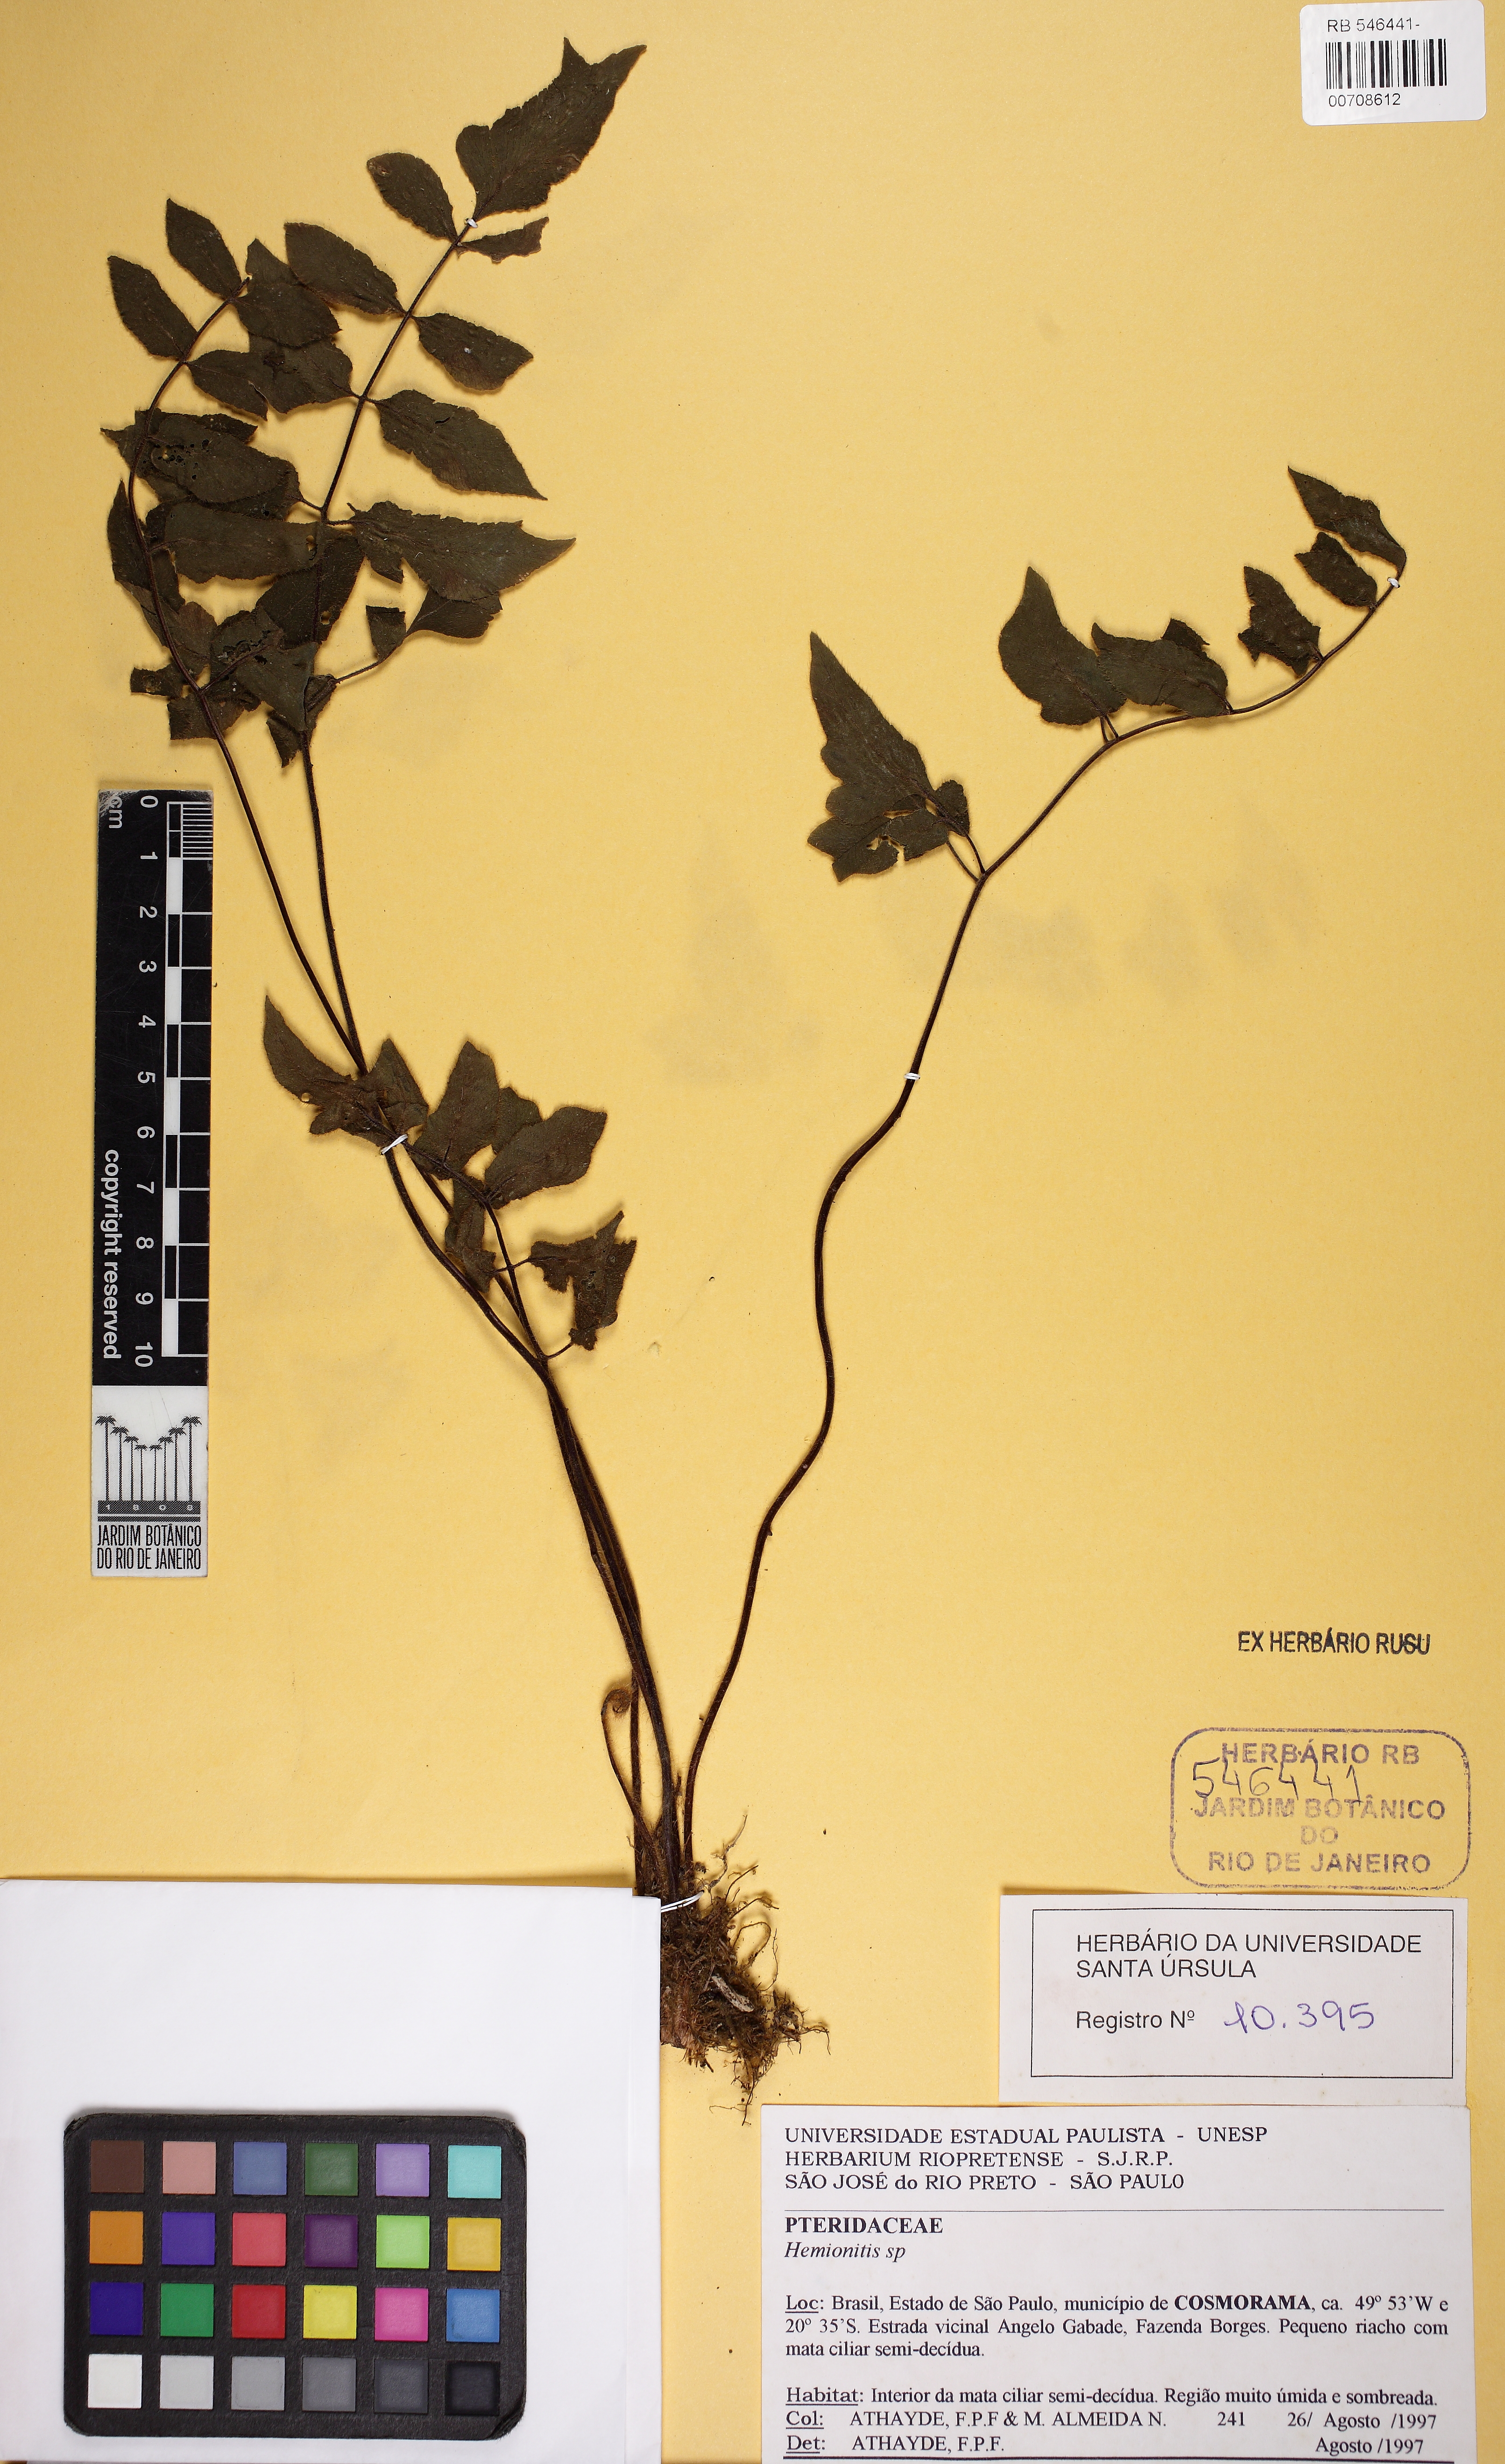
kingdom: Plantae
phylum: Tracheophyta
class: Polypodiopsida
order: Polypodiales
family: Pteridaceae
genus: Hemionitis
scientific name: Hemionitis tomentosa
